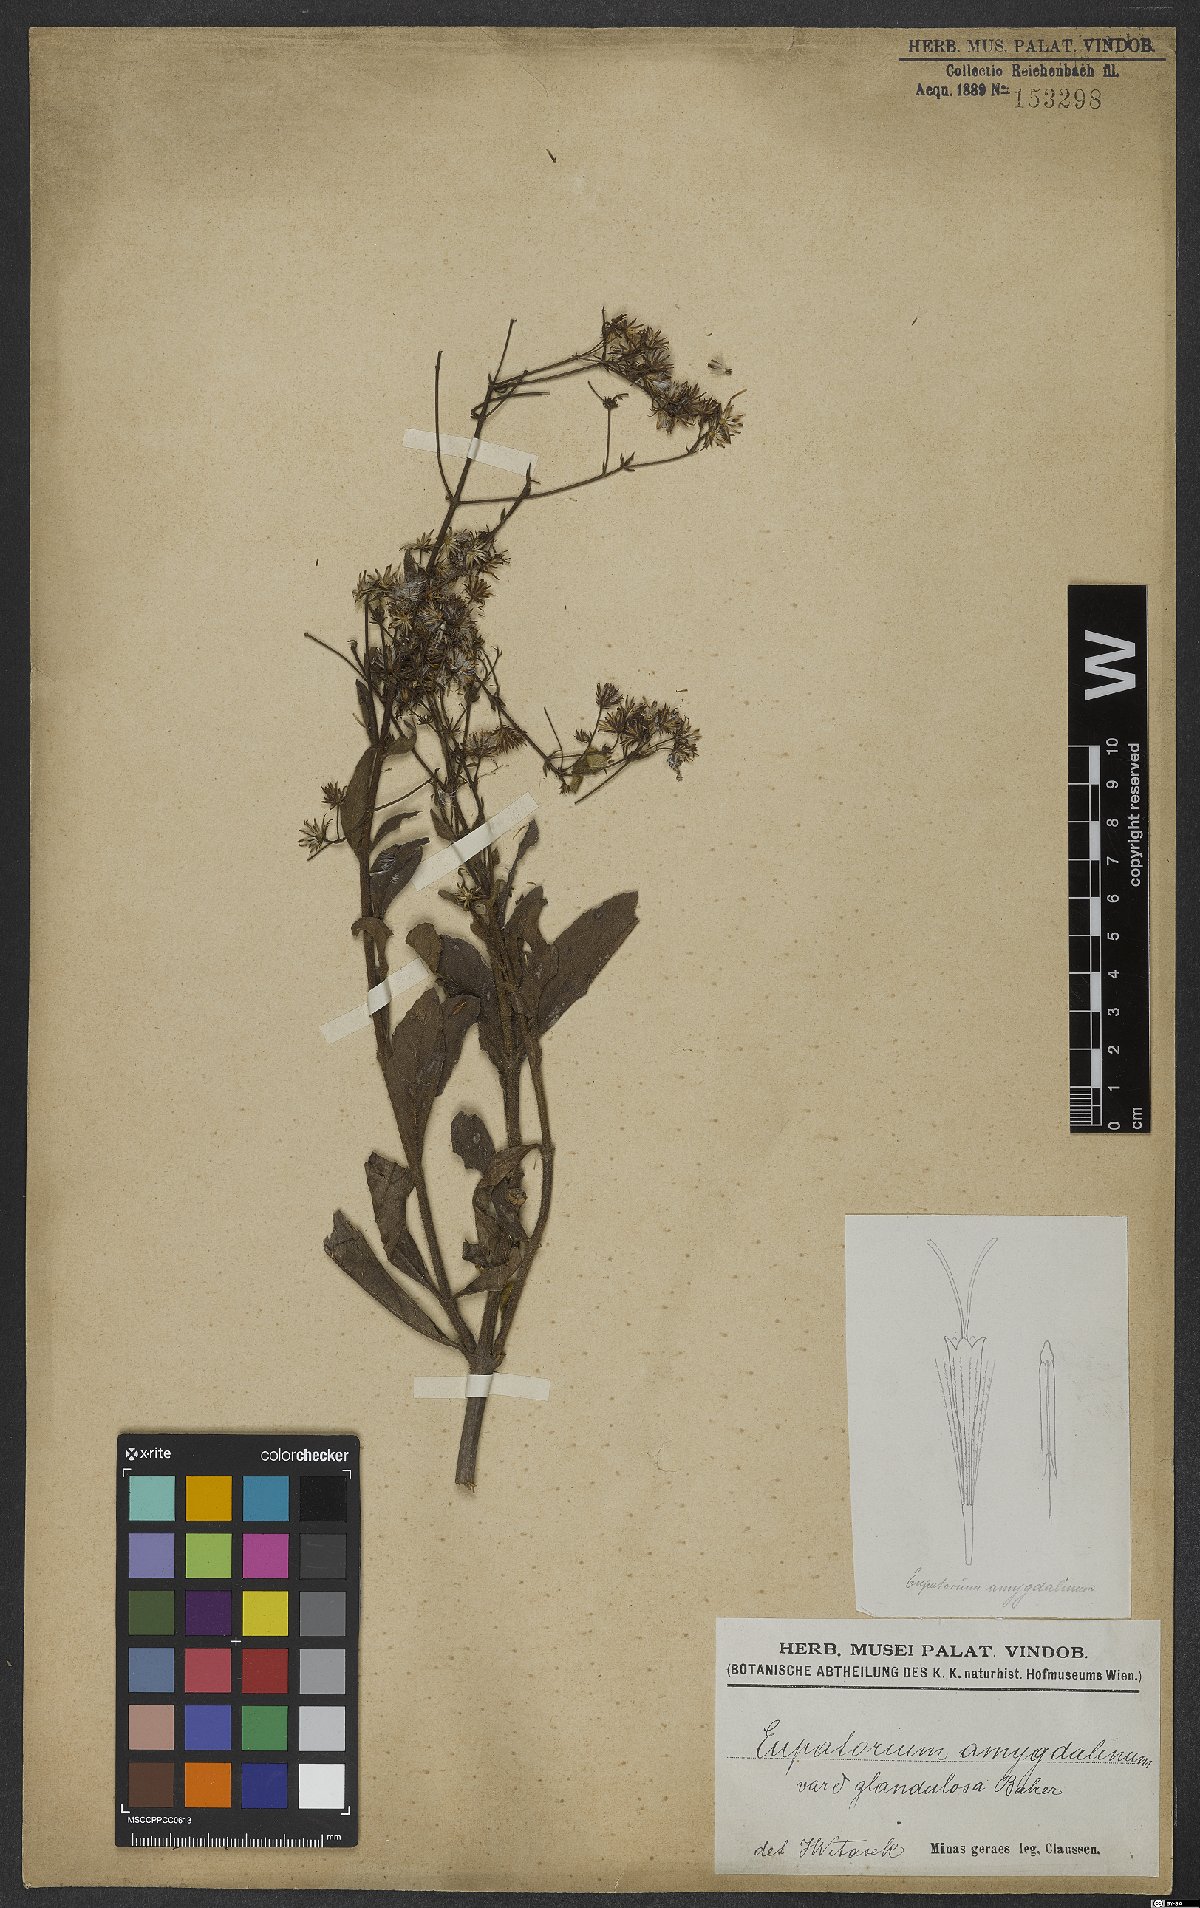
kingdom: Plantae
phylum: Tracheophyta
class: Magnoliopsida
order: Asterales
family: Asteraceae
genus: Ayapana
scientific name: Ayapana amygdalina
